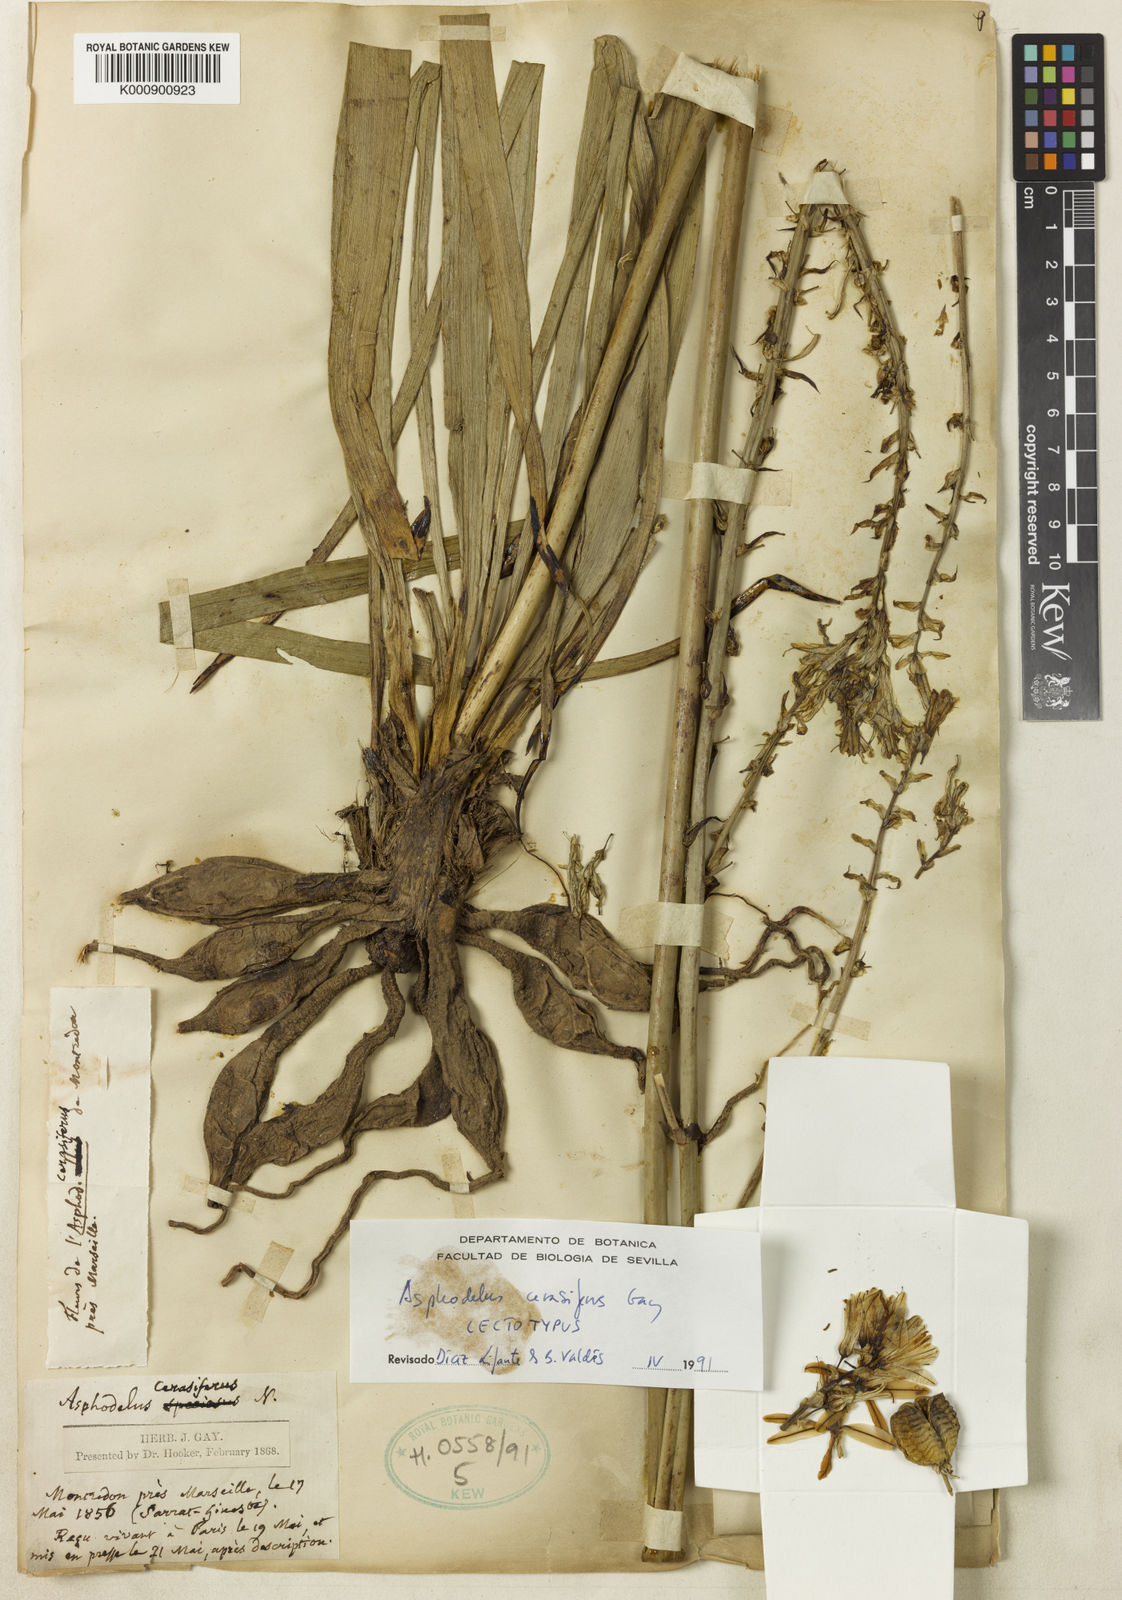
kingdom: Plantae
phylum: Tracheophyta
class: Liliopsida
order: Asparagales
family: Asphodelaceae
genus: Asphodelus
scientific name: Asphodelus
